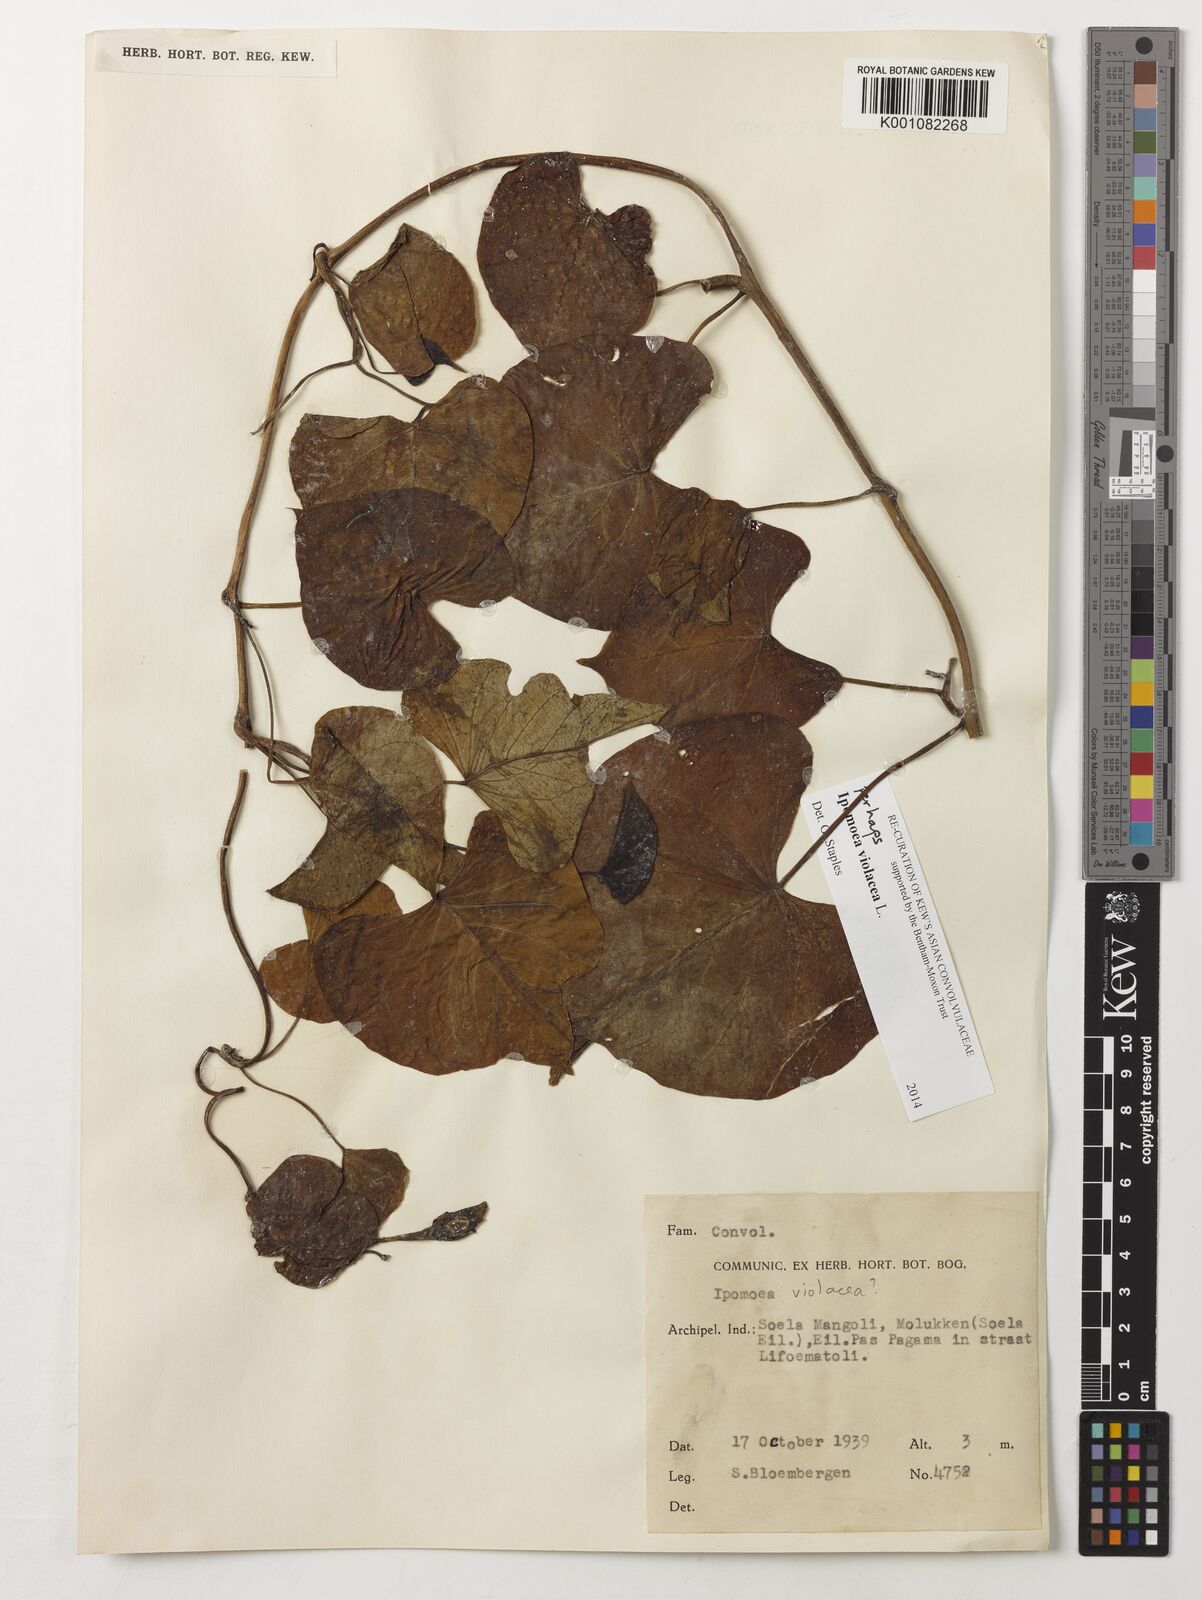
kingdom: Plantae
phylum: Tracheophyta
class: Magnoliopsida
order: Solanales
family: Convolvulaceae
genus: Ipomoea
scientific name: Ipomoea violacea
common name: Beach moonflower
